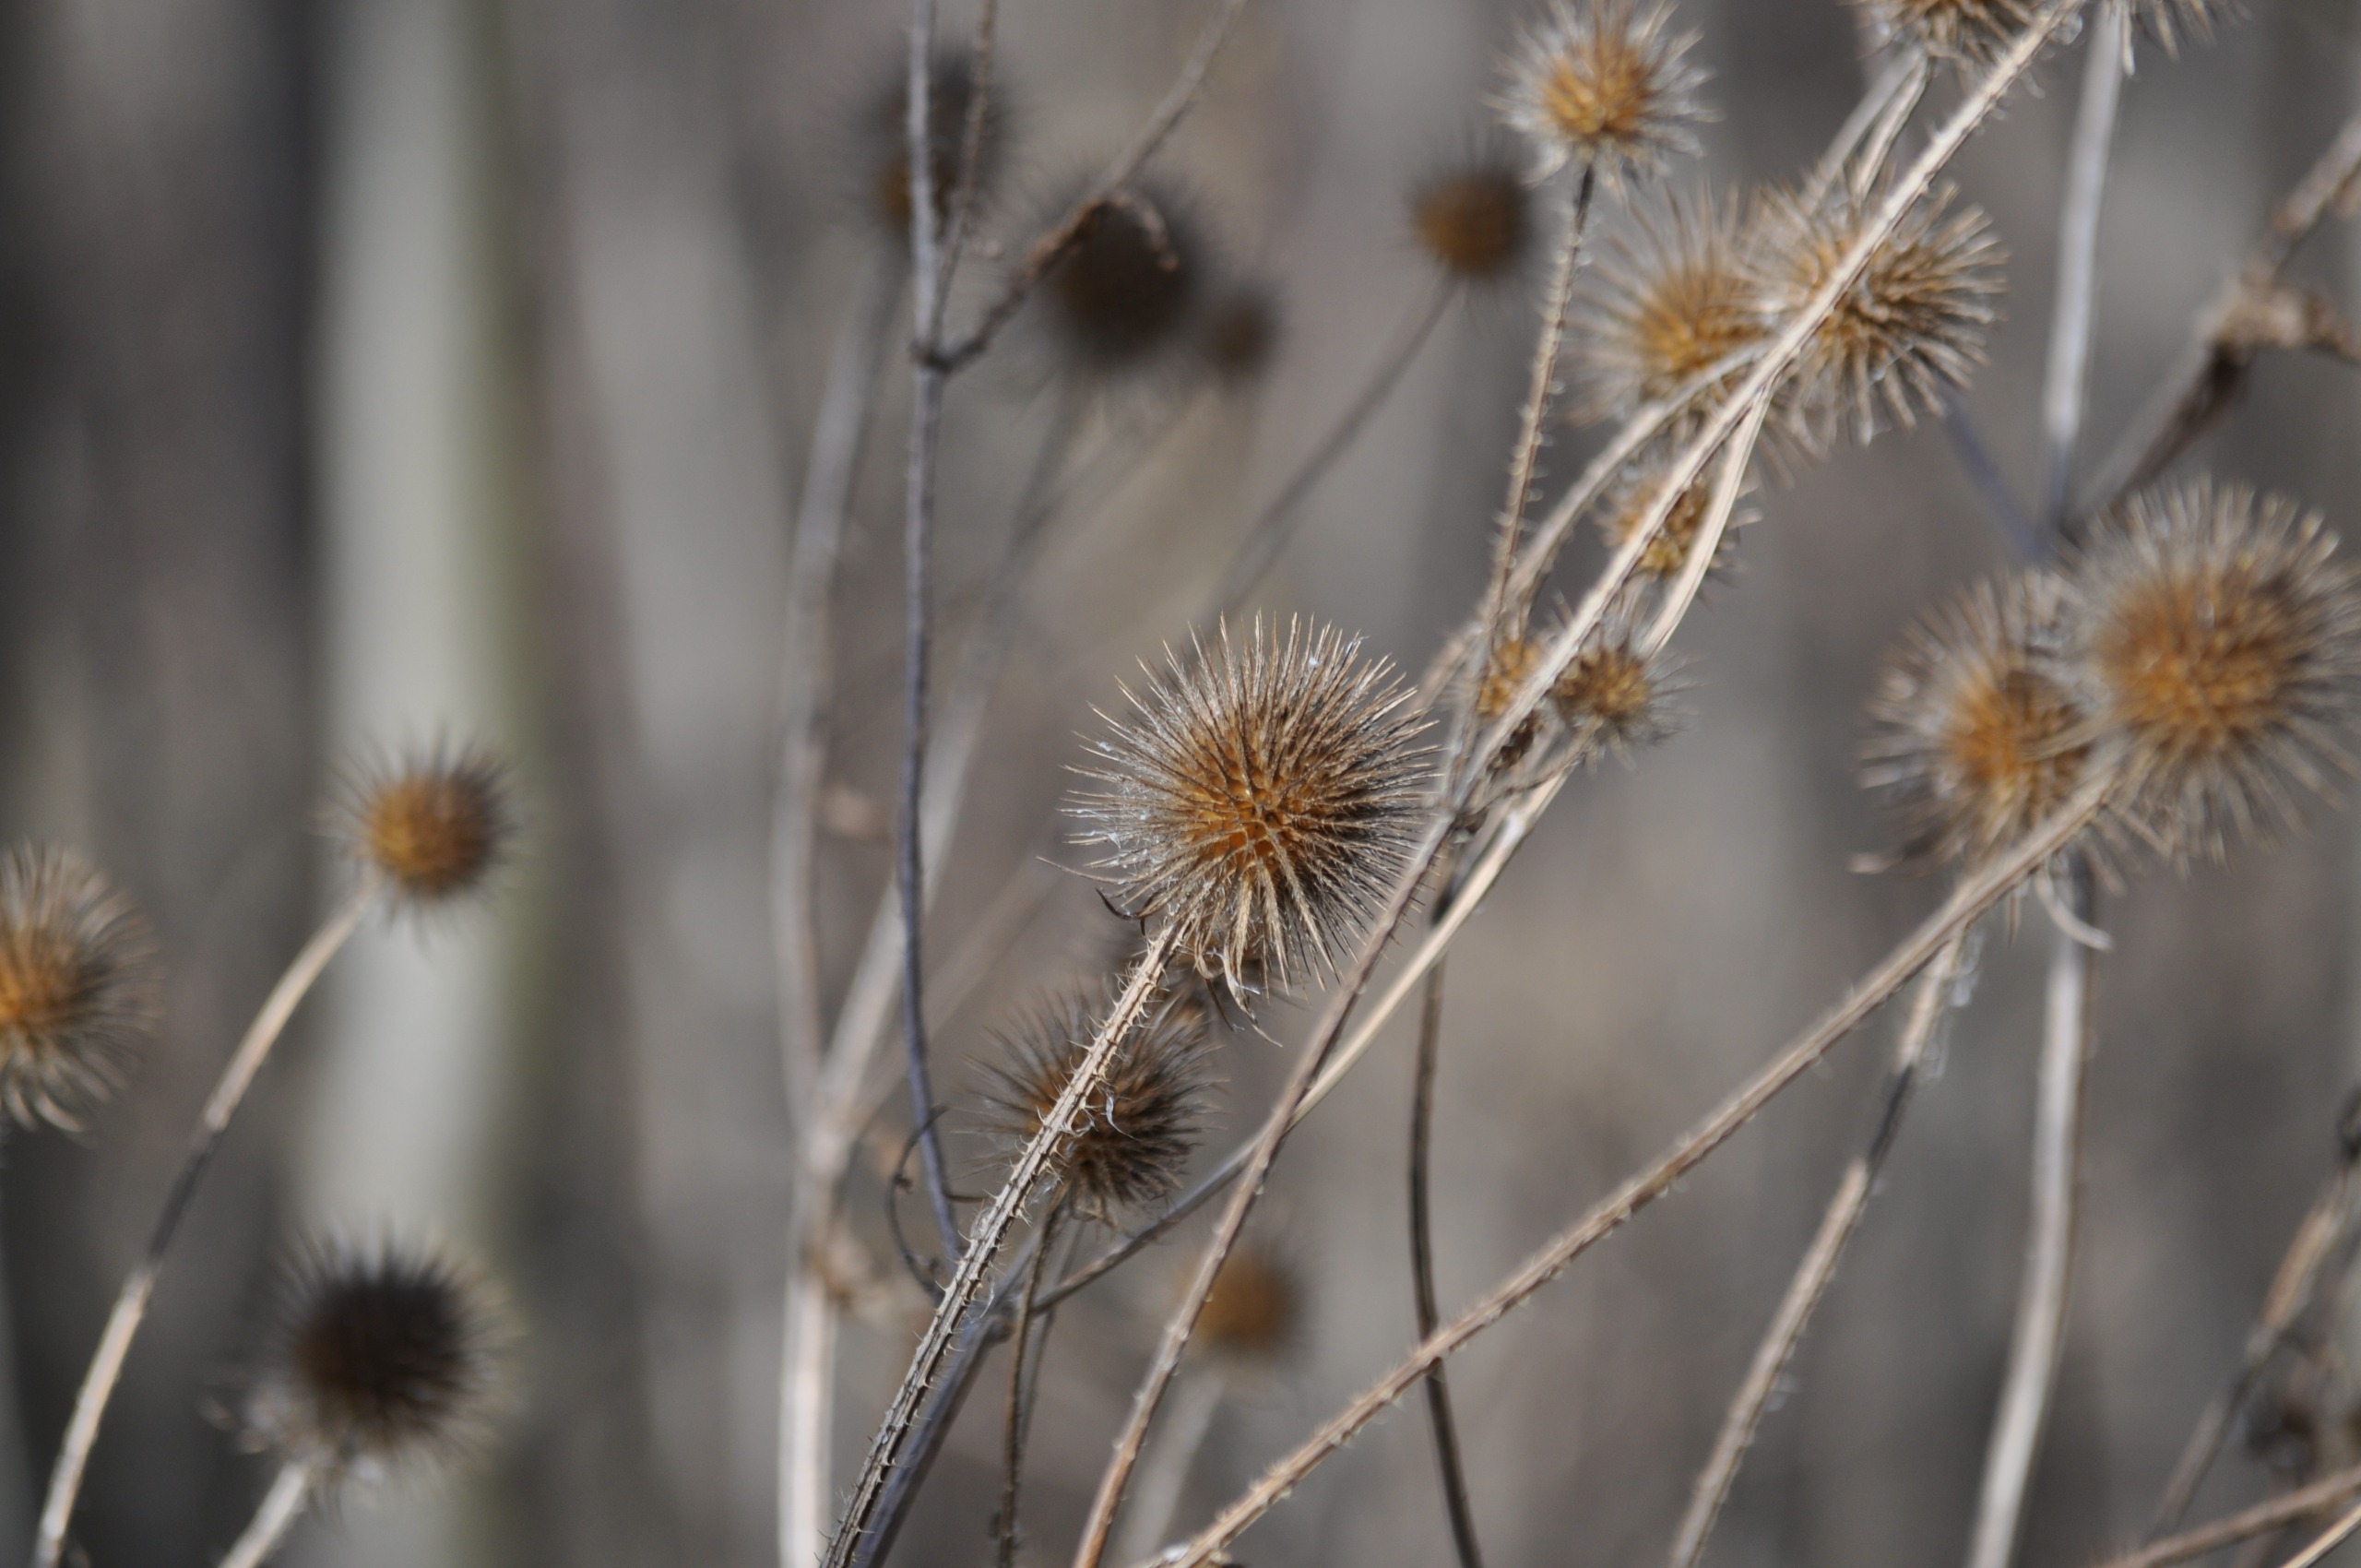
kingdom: Plantae
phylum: Tracheophyta
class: Magnoliopsida
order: Dipsacales
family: Caprifoliaceae
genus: Dipsacus
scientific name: Dipsacus strigosus
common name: Pindsvin-kartebolle
